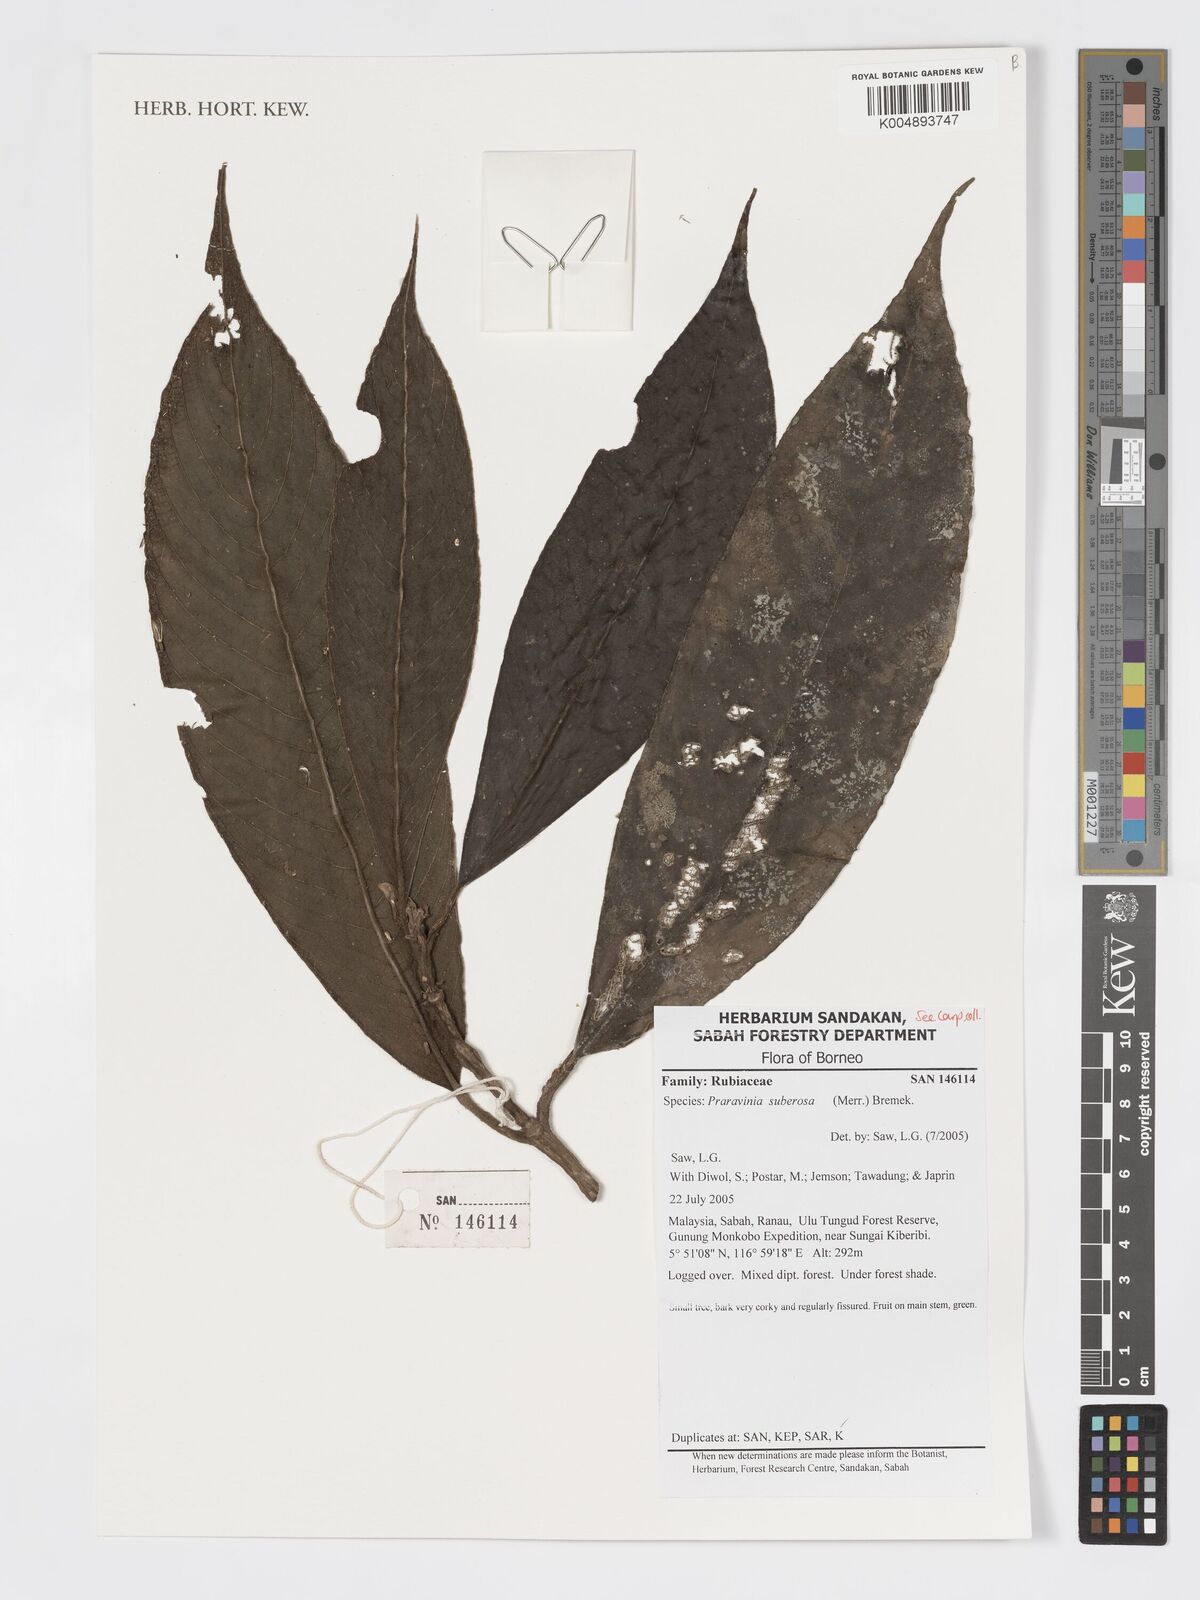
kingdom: Plantae
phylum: Tracheophyta
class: Magnoliopsida
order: Gentianales
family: Rubiaceae
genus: Praravinia
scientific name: Praravinia suberosa
